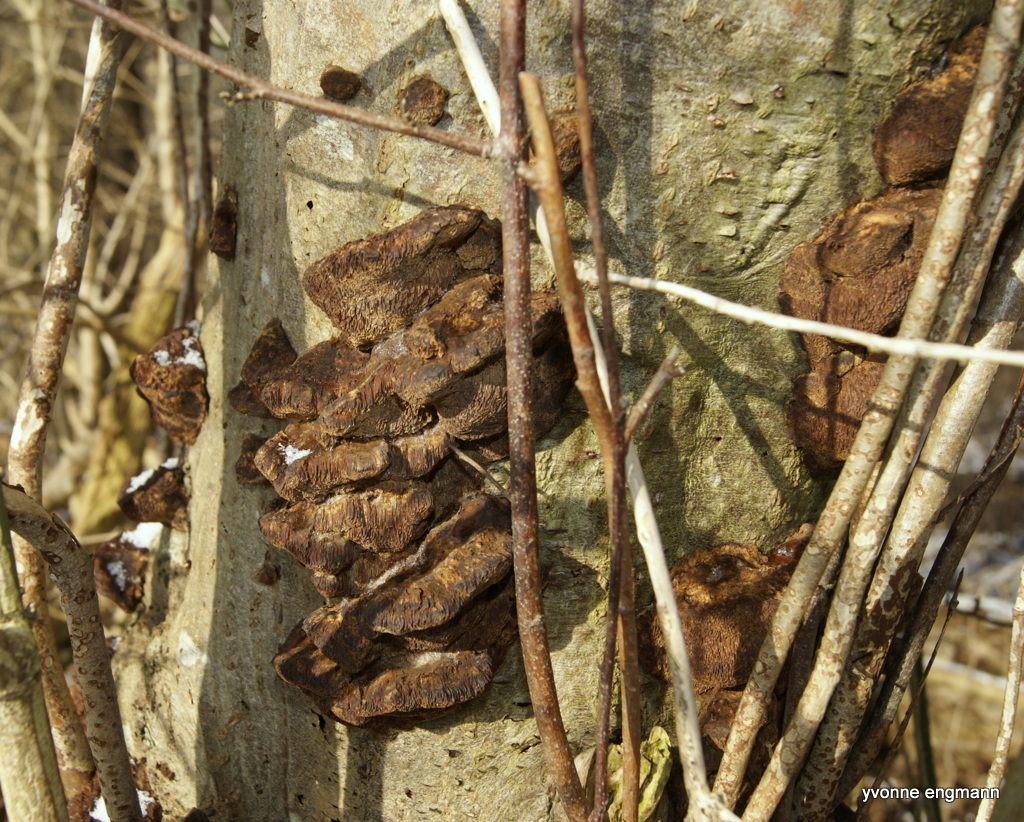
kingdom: Fungi
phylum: Basidiomycota
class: Agaricomycetes
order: Hymenochaetales
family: Hymenochaetaceae
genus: Xanthoporia
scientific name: Xanthoporia radiata
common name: elle-spejlporesvamp
